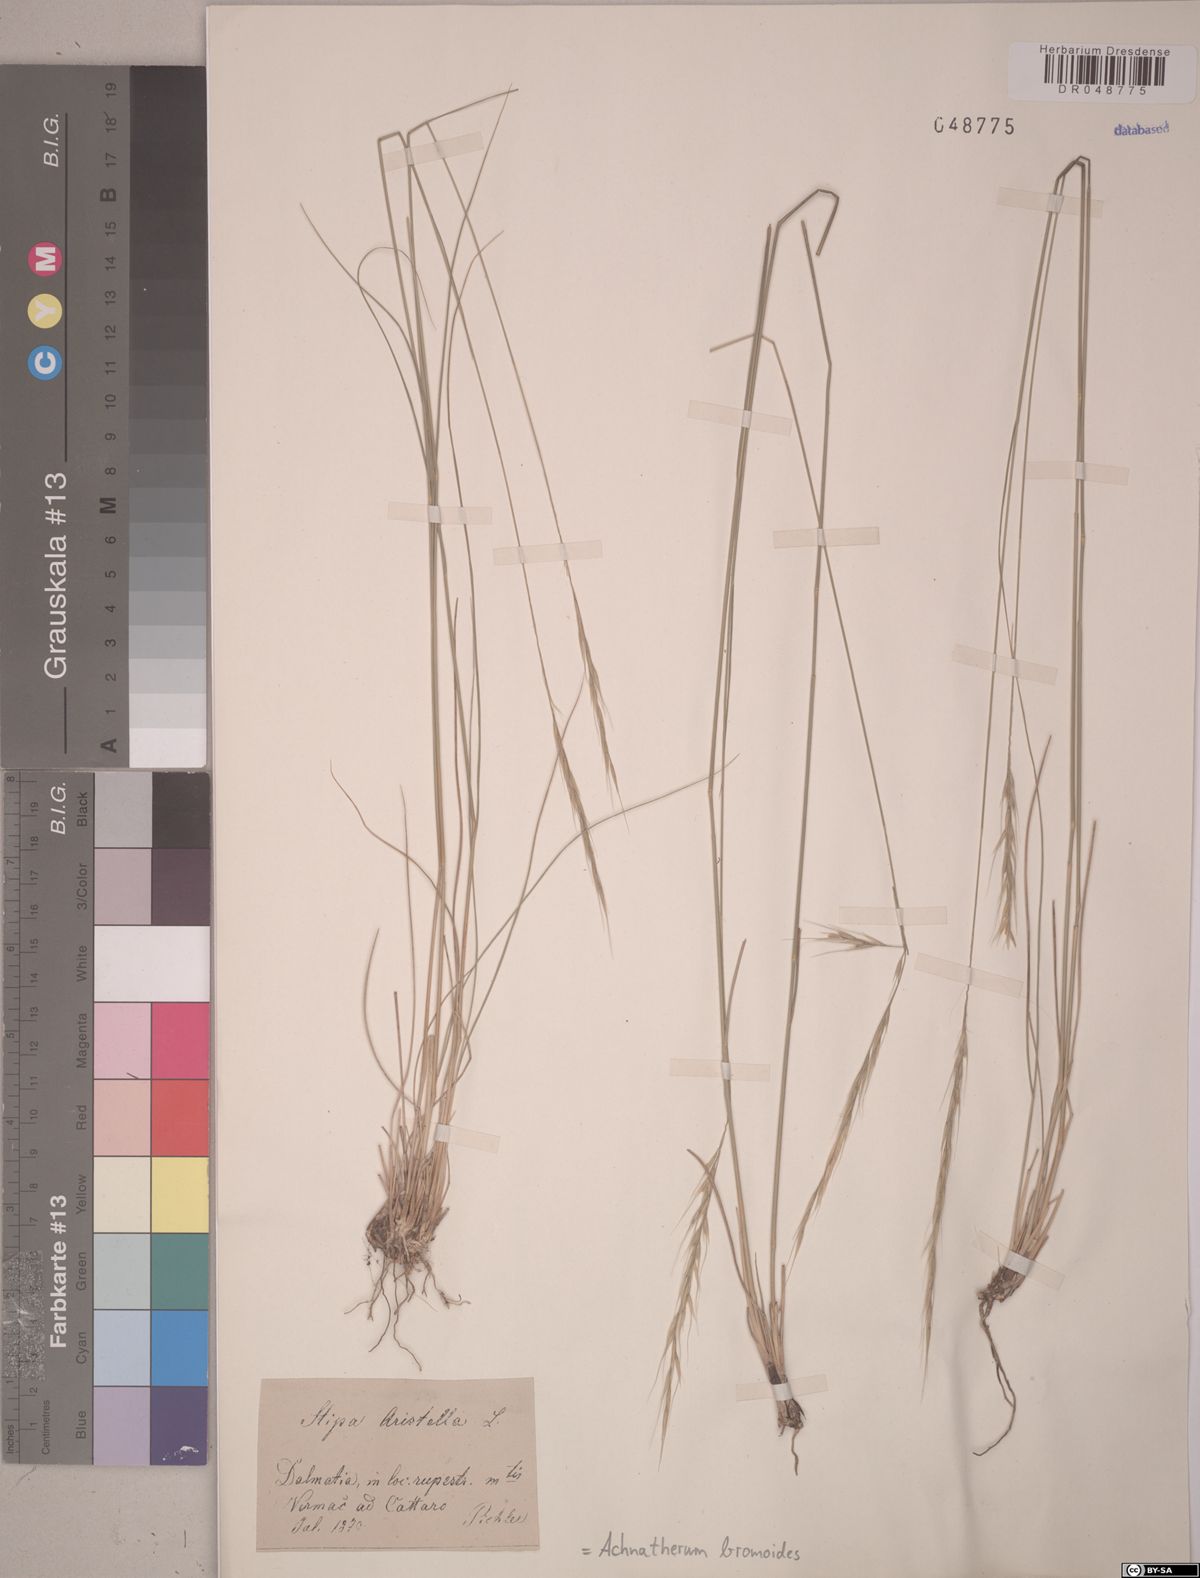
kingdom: Plantae
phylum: Tracheophyta
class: Liliopsida
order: Poales
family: Poaceae
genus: Achnatherum
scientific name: Achnatherum bromoides
